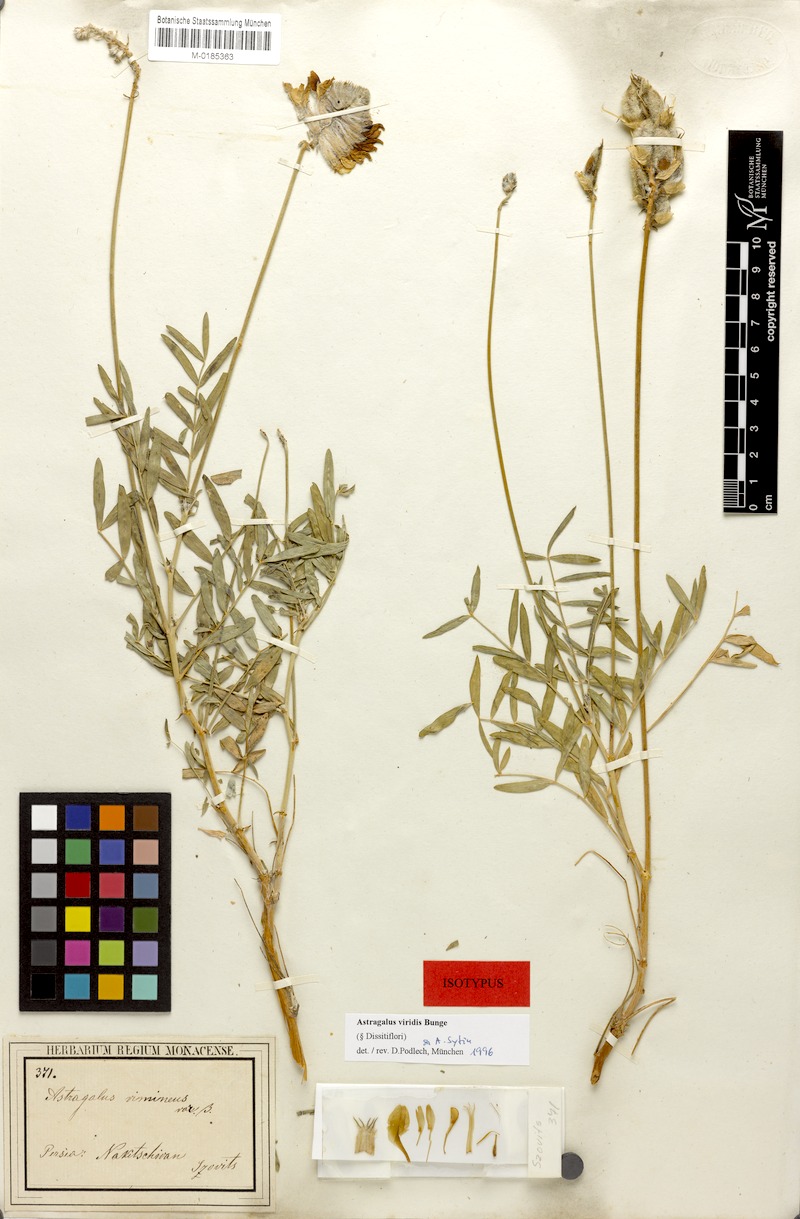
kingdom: Plantae
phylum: Tracheophyta
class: Magnoliopsida
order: Fabales
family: Fabaceae
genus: Astragalus
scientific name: Astragalus viridis
